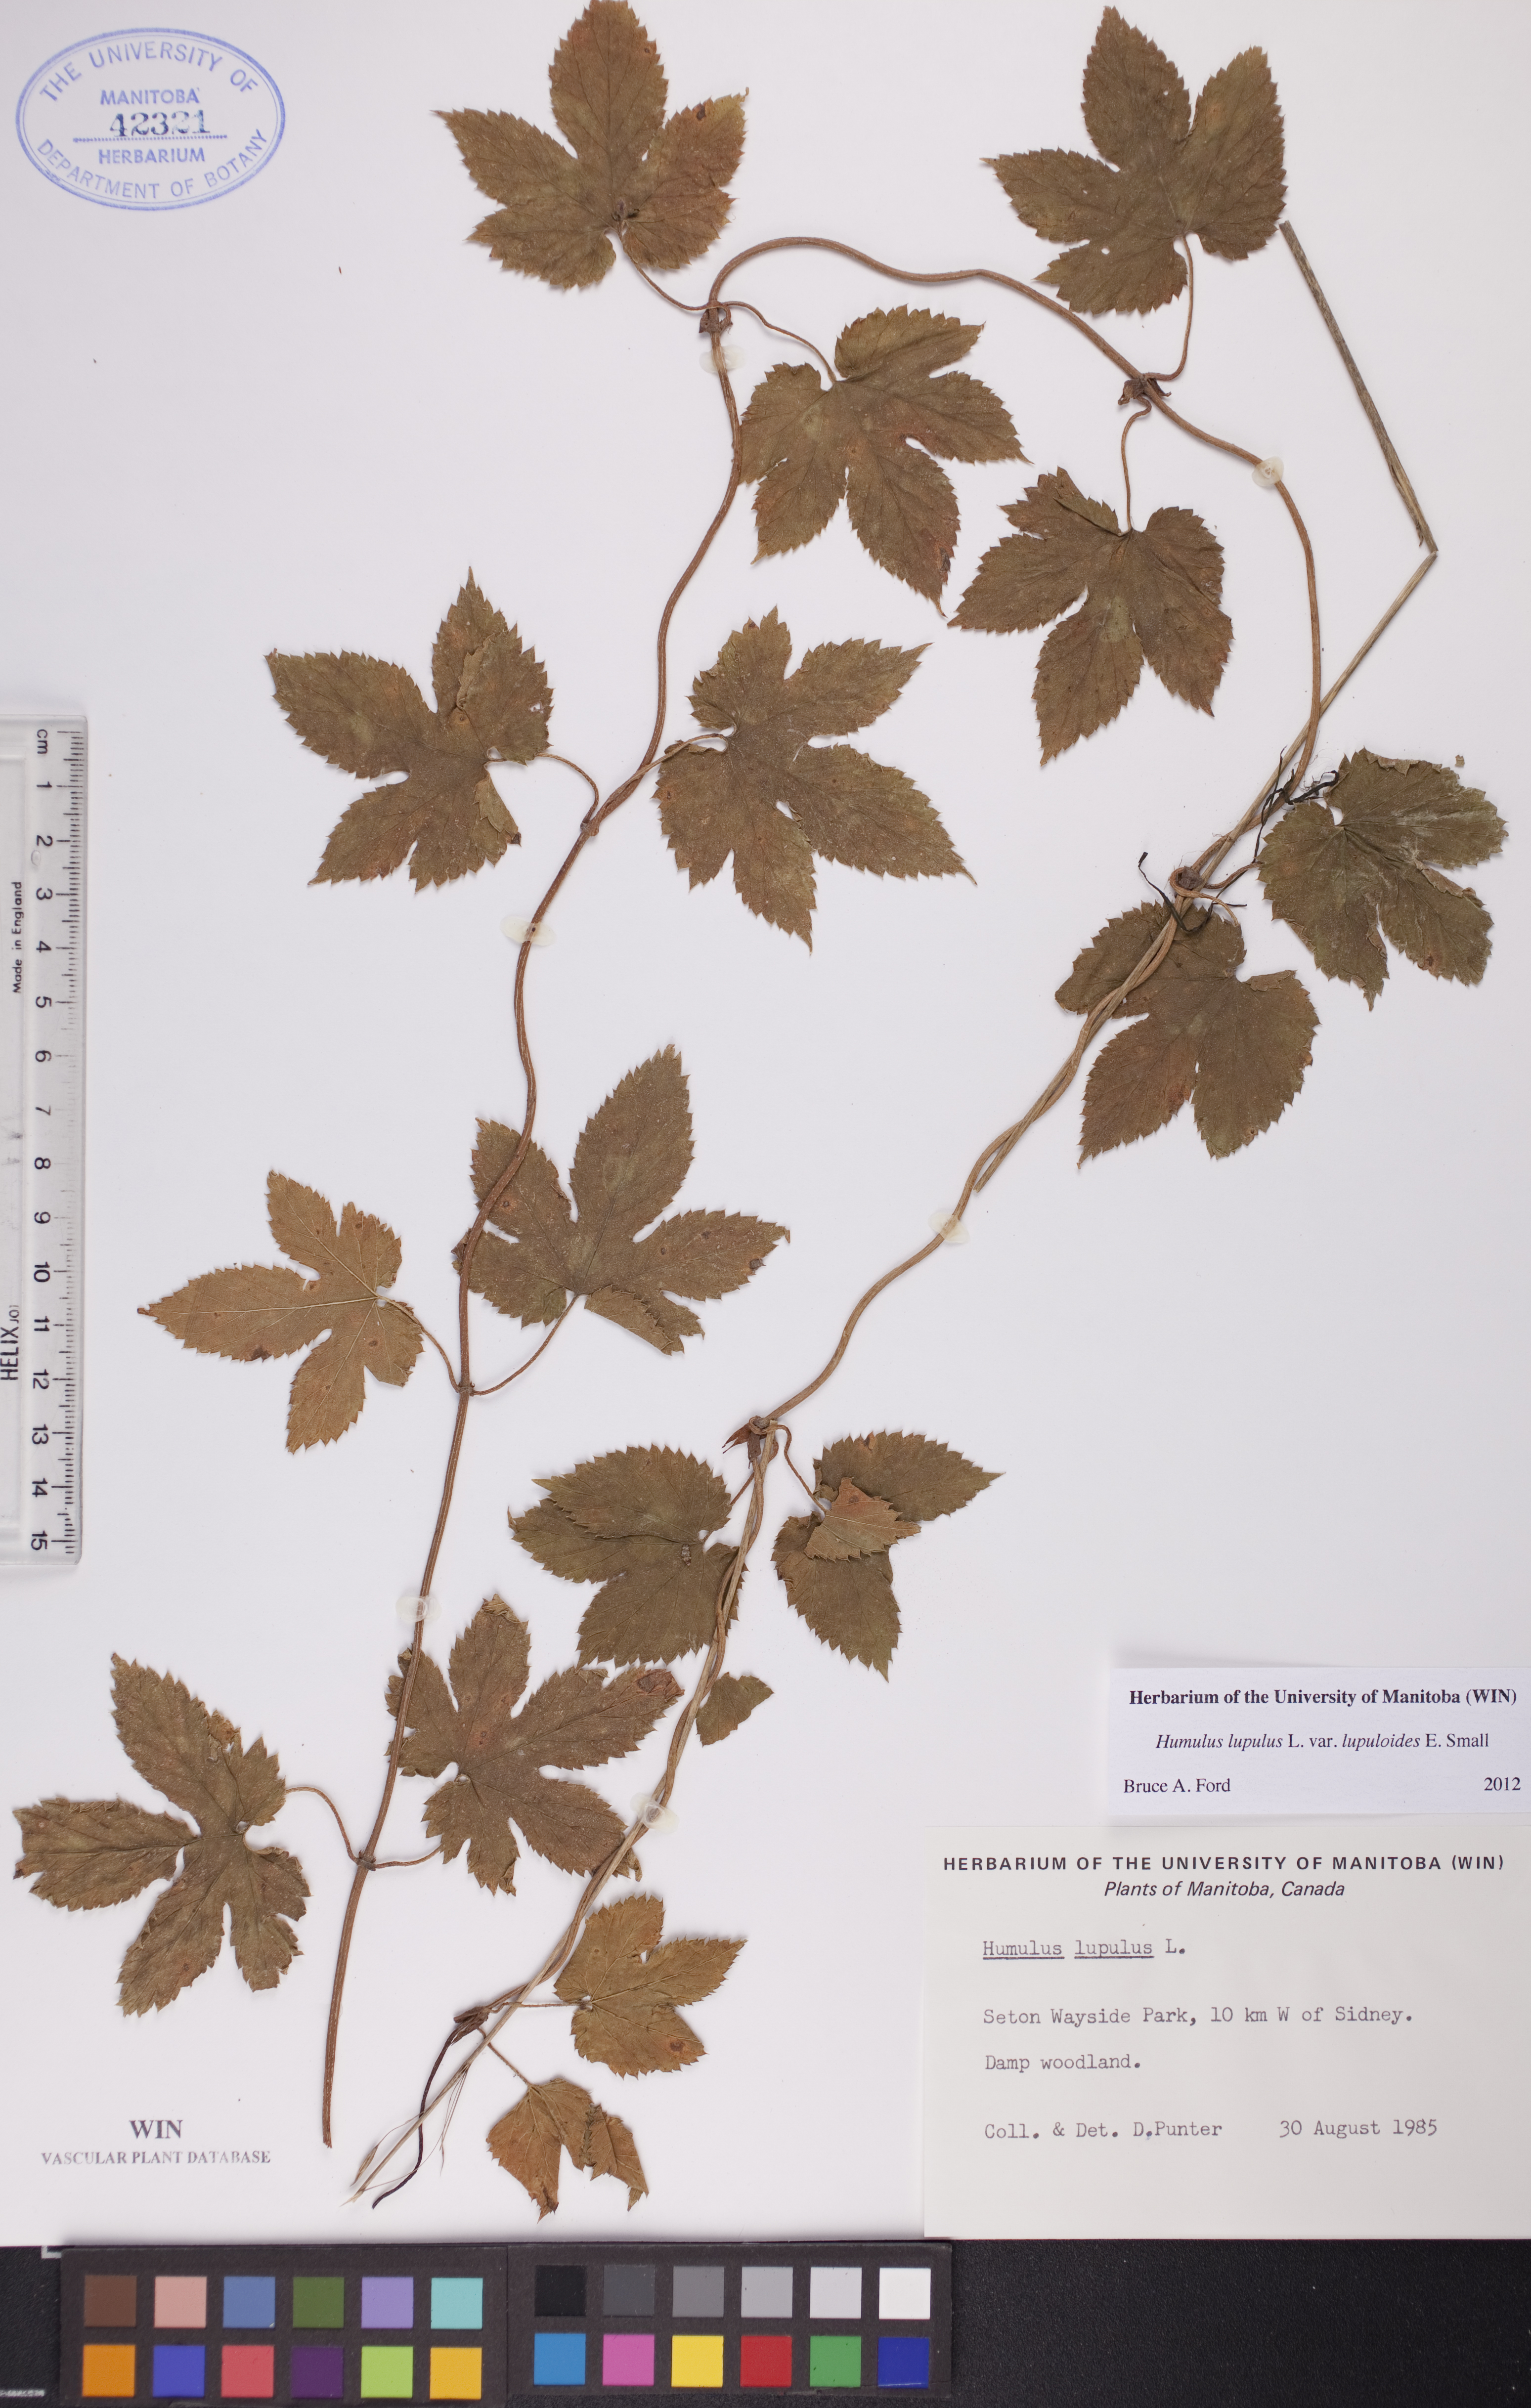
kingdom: Plantae
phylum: Tracheophyta
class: Magnoliopsida
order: Rosales
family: Cannabaceae
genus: Humulus
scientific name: Humulus americanus
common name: American hops
